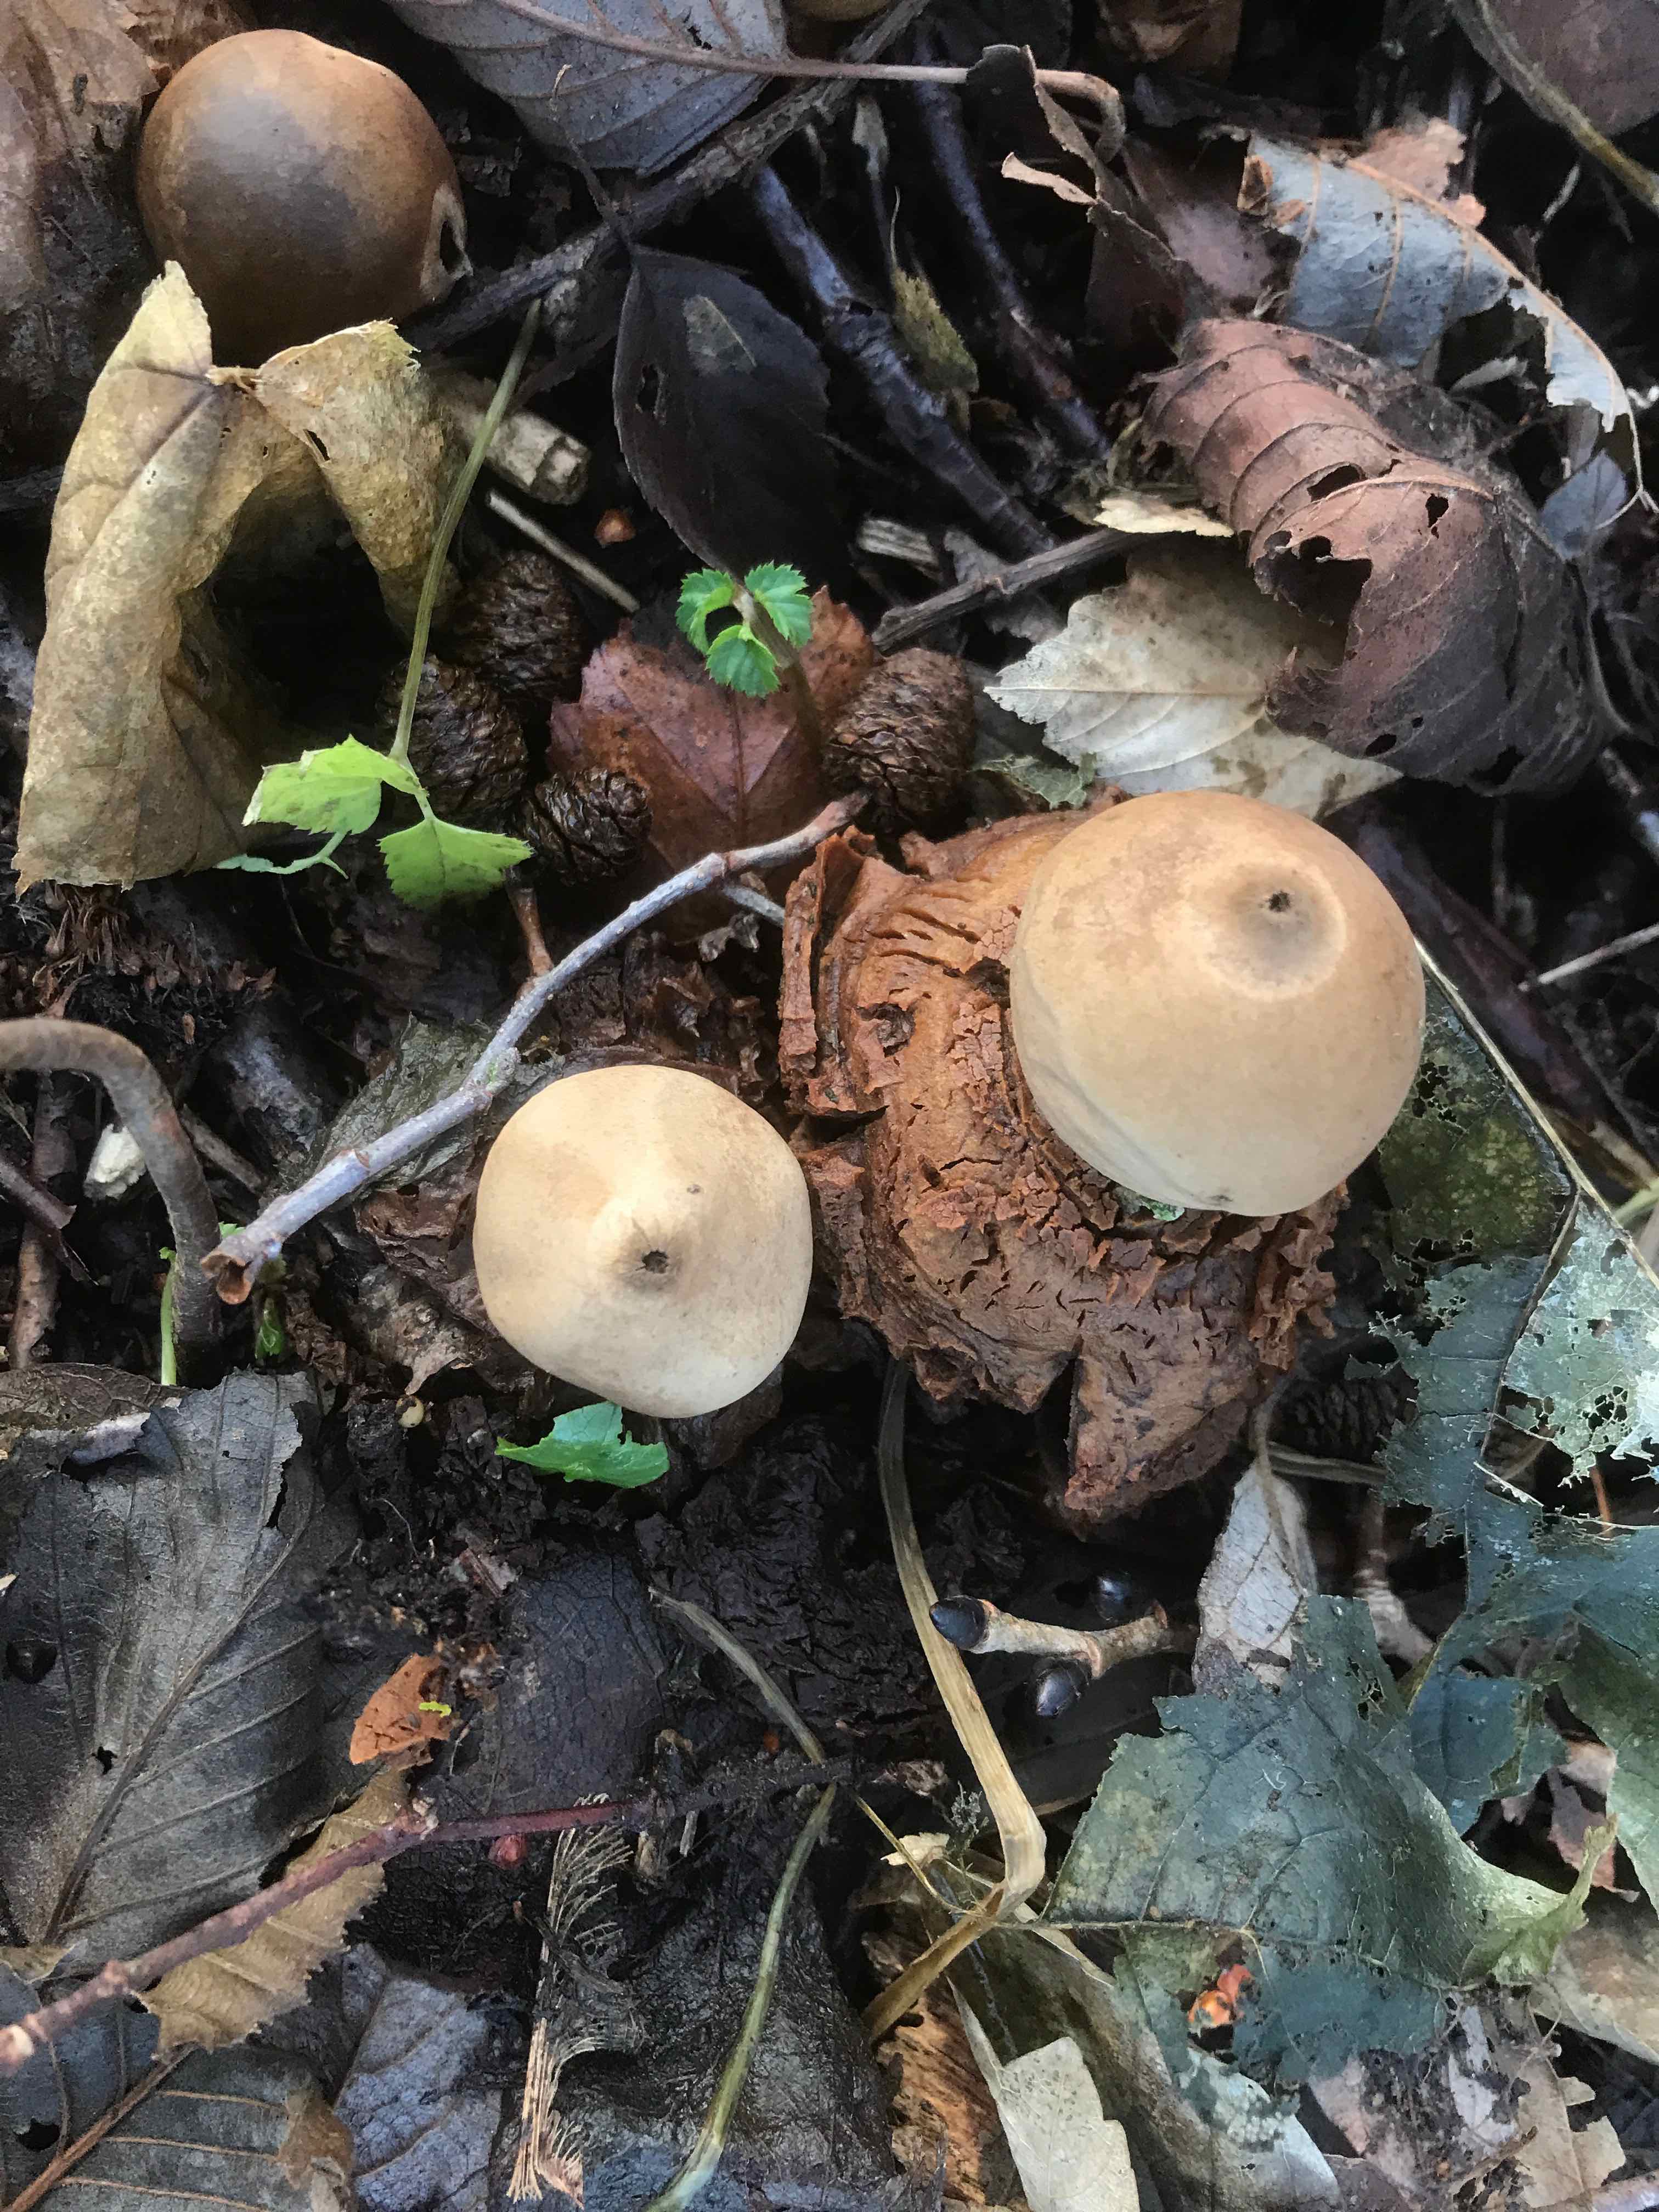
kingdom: Fungi
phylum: Basidiomycota
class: Agaricomycetes
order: Geastrales
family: Geastraceae
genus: Geastrum
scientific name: Geastrum michelianum
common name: kødet stjernebold
